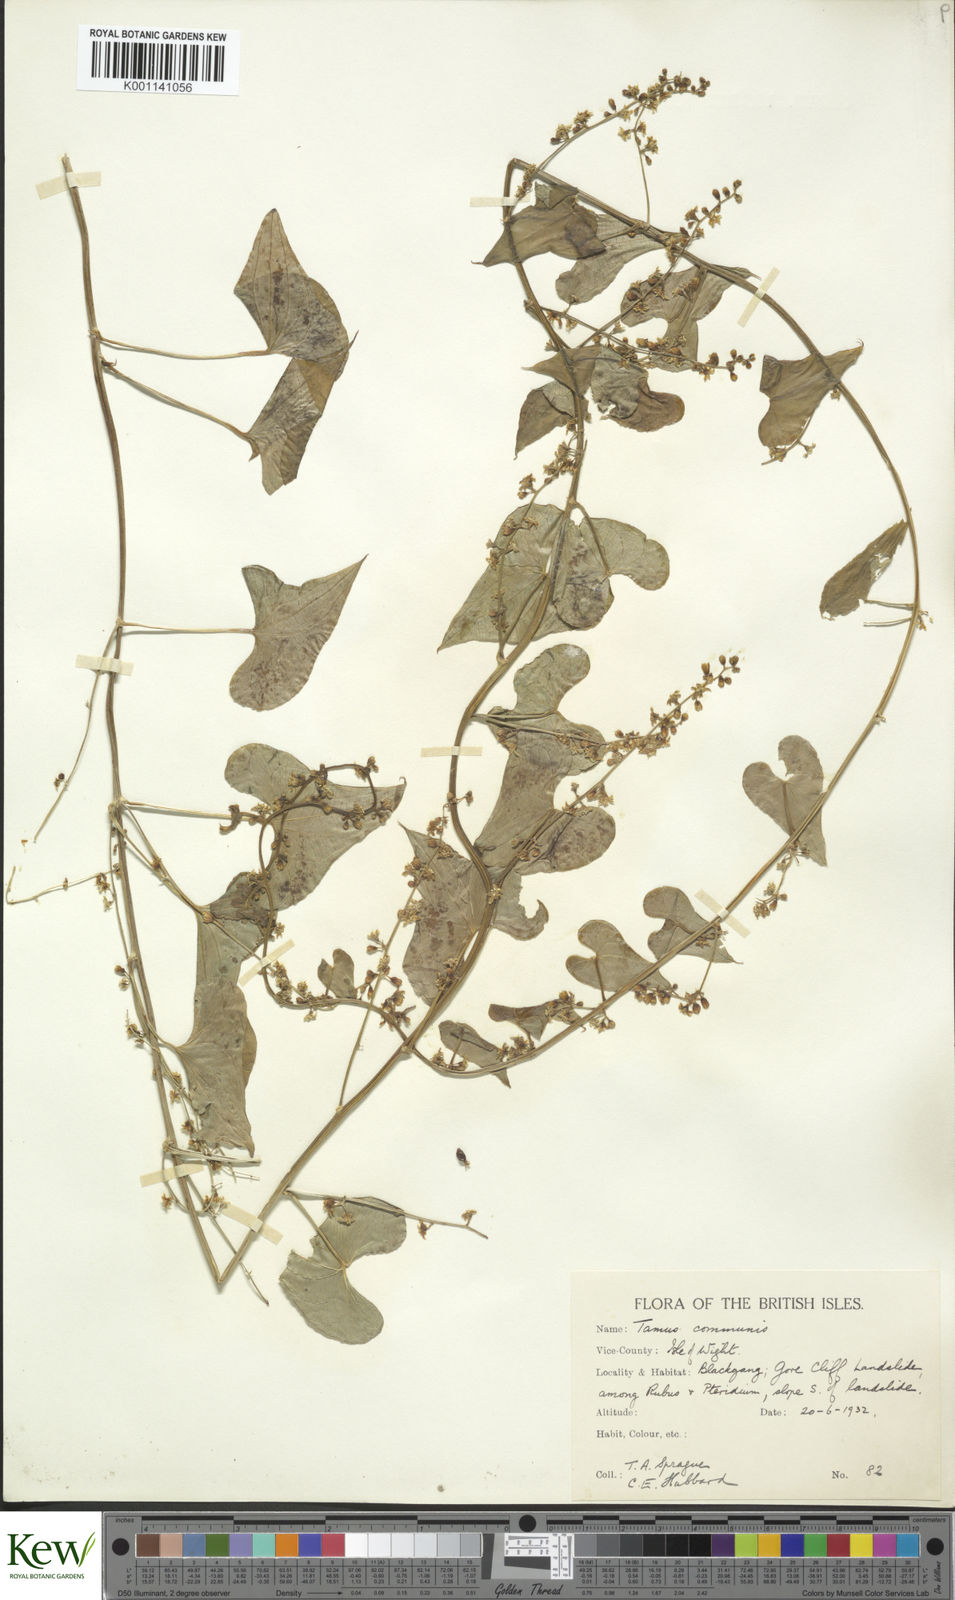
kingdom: Plantae
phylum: Tracheophyta
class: Liliopsida
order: Dioscoreales
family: Dioscoreaceae
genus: Dioscorea
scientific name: Dioscorea communis
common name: Black-bindweed
